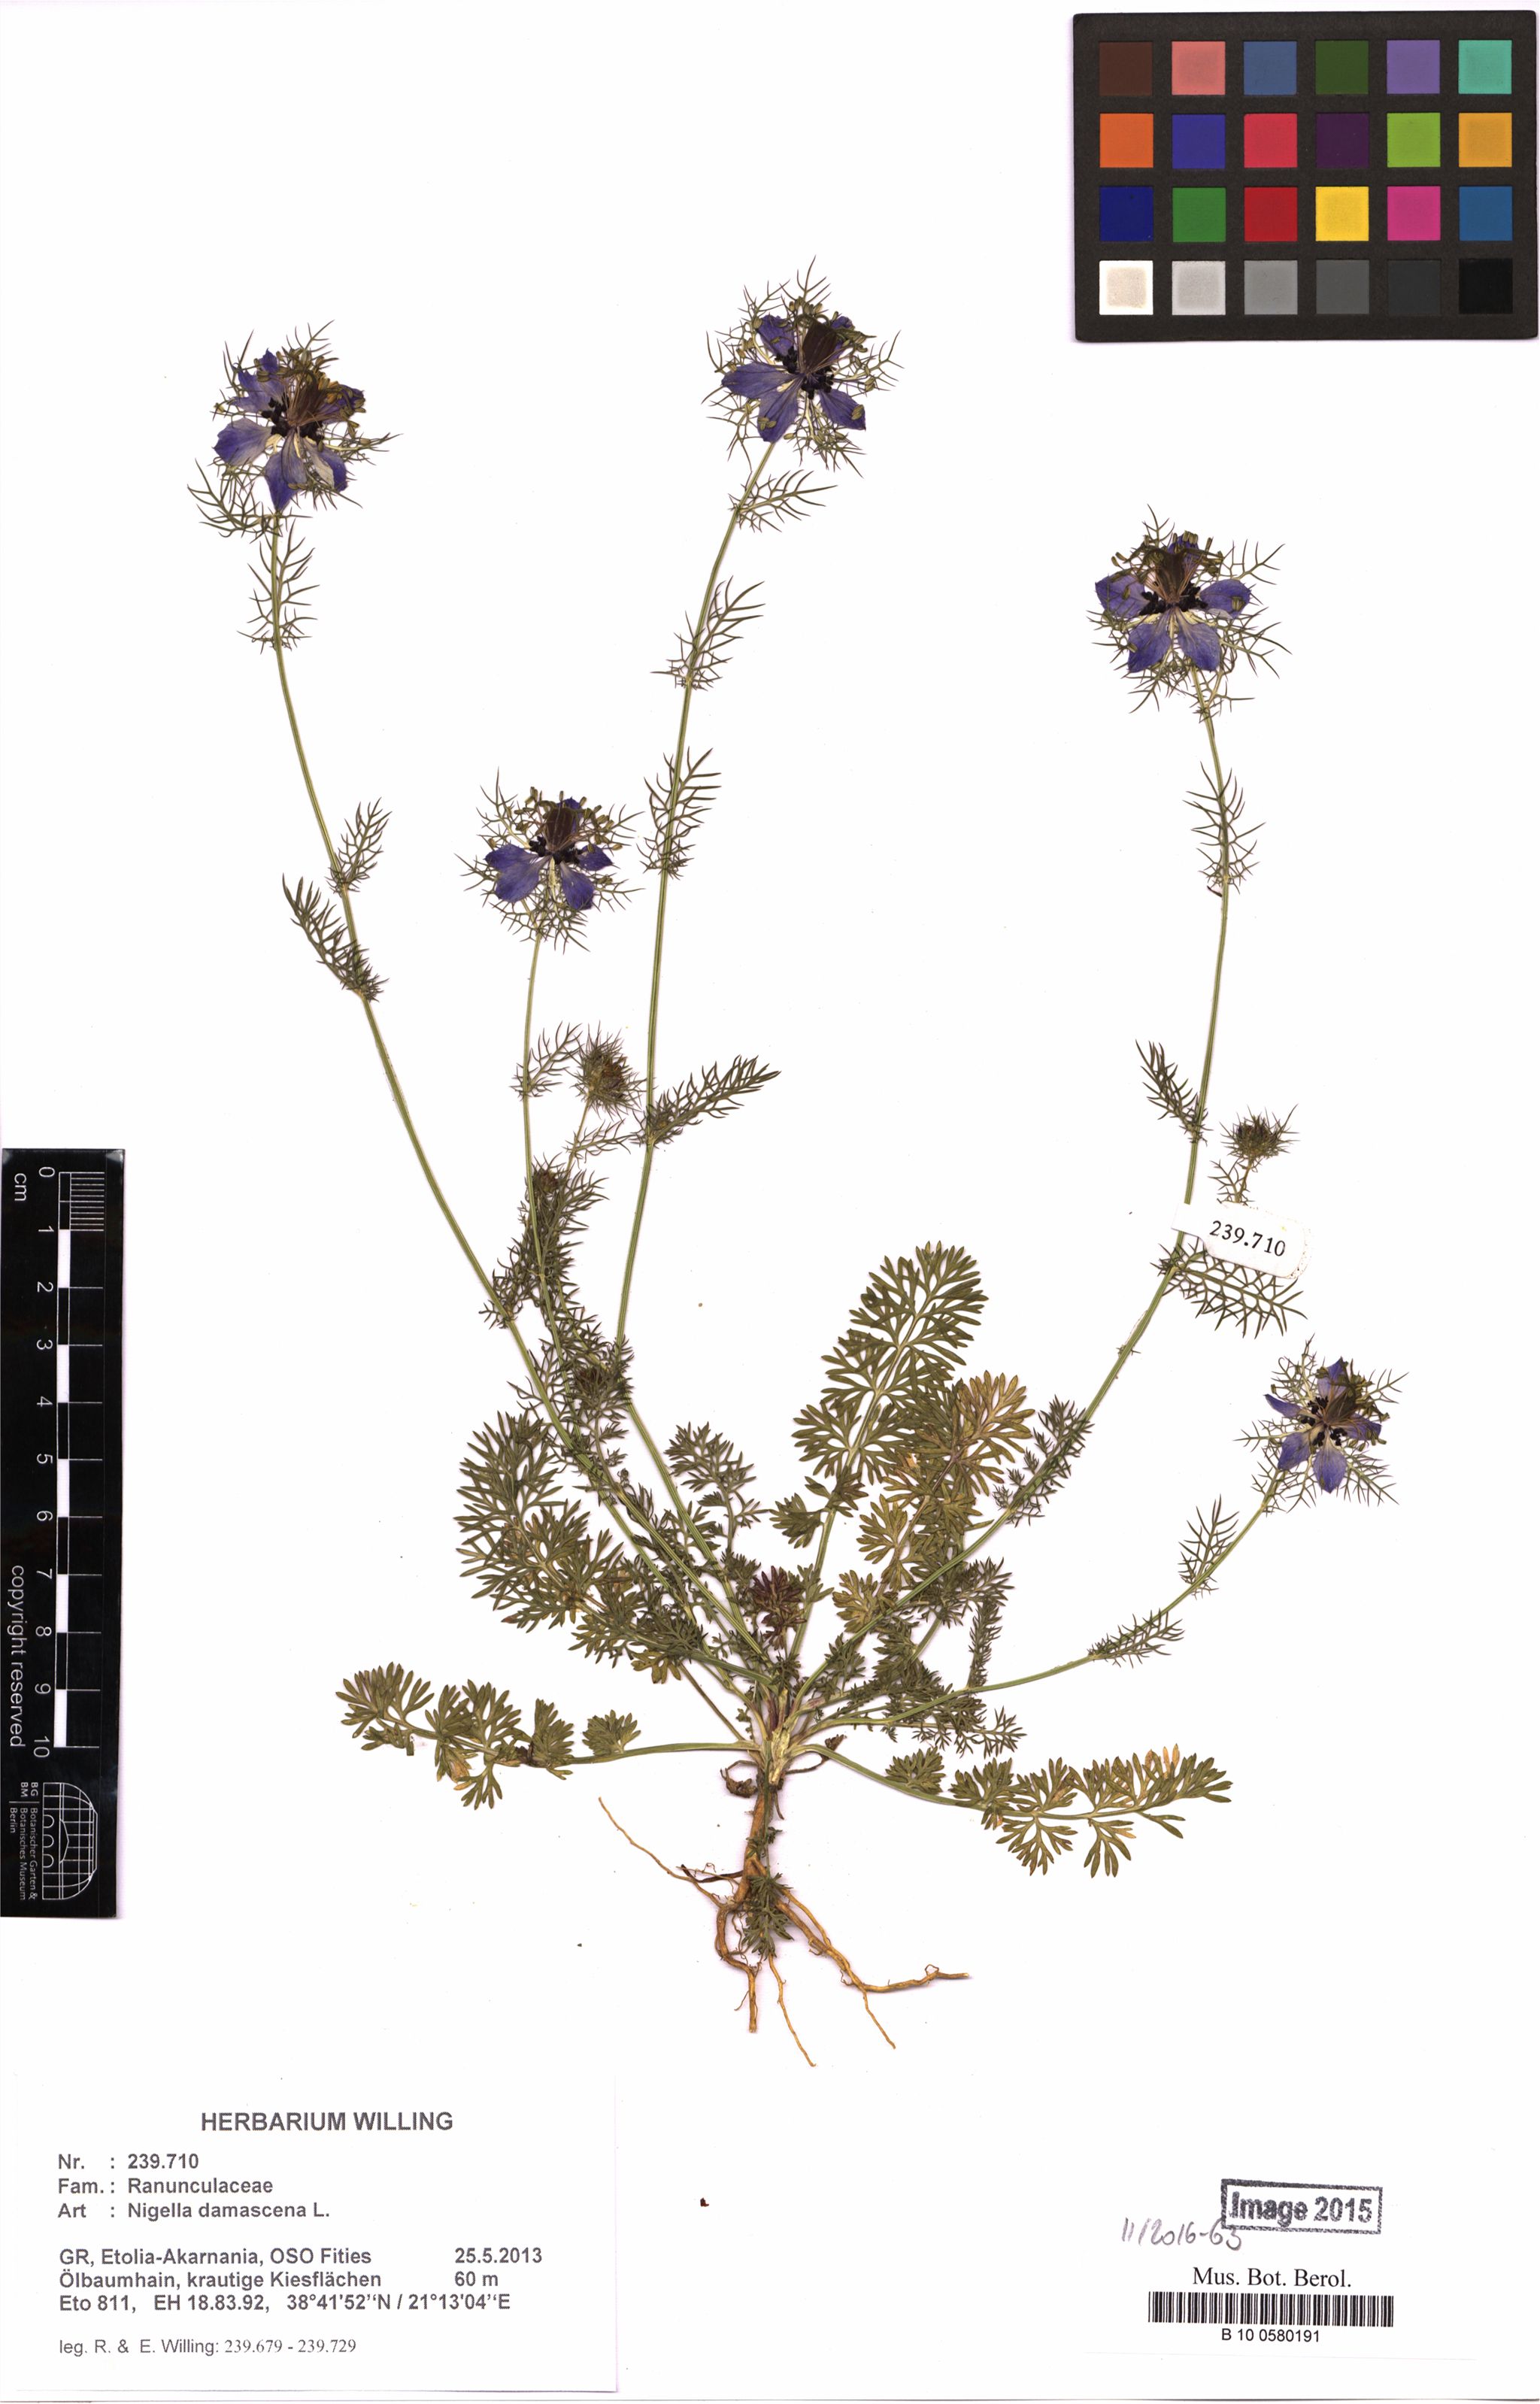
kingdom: Plantae
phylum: Tracheophyta
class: Magnoliopsida
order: Ranunculales
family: Ranunculaceae
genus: Nigella
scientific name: Nigella damascena
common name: Love-in-a-mist
